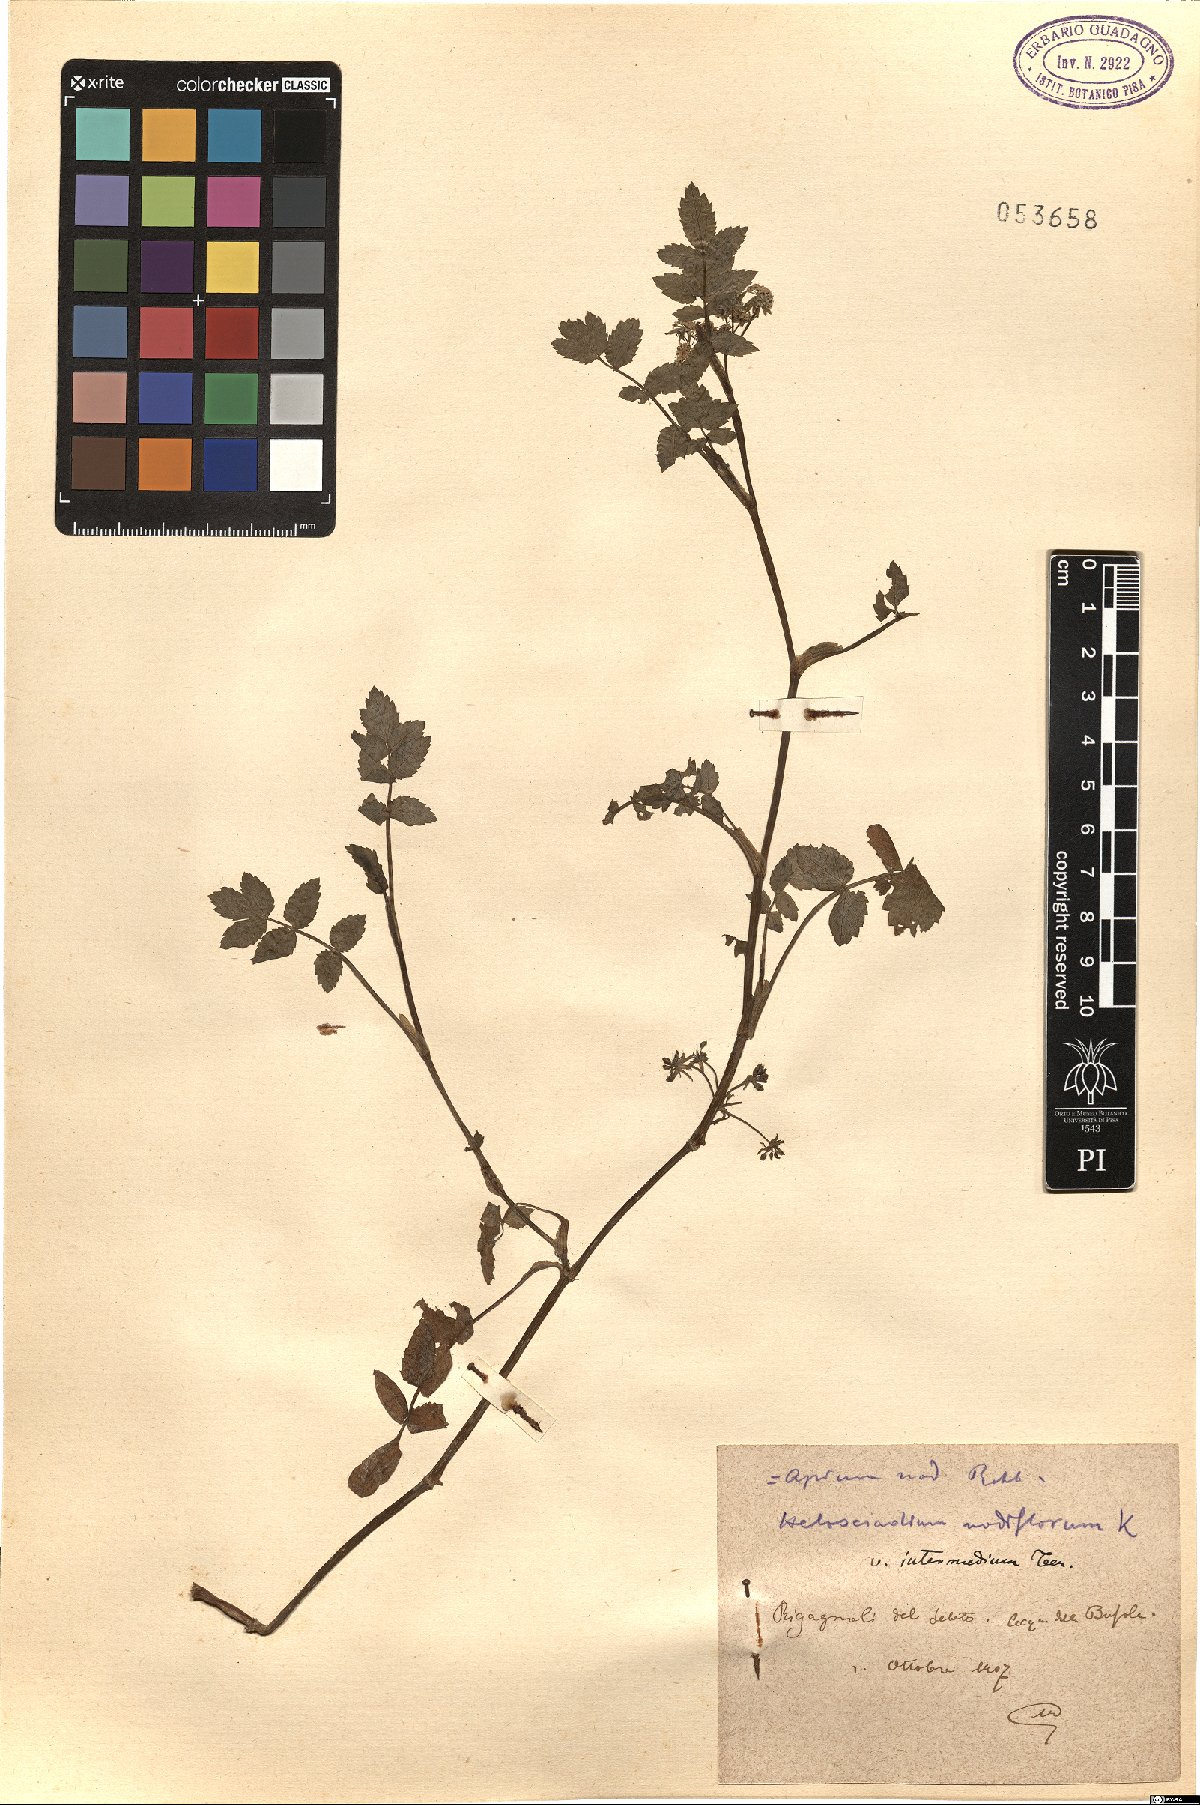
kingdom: Plantae
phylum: Tracheophyta
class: Magnoliopsida
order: Apiales
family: Apiaceae
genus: Helosciadium
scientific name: Helosciadium nodiflorum
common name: Fool's-watercress
